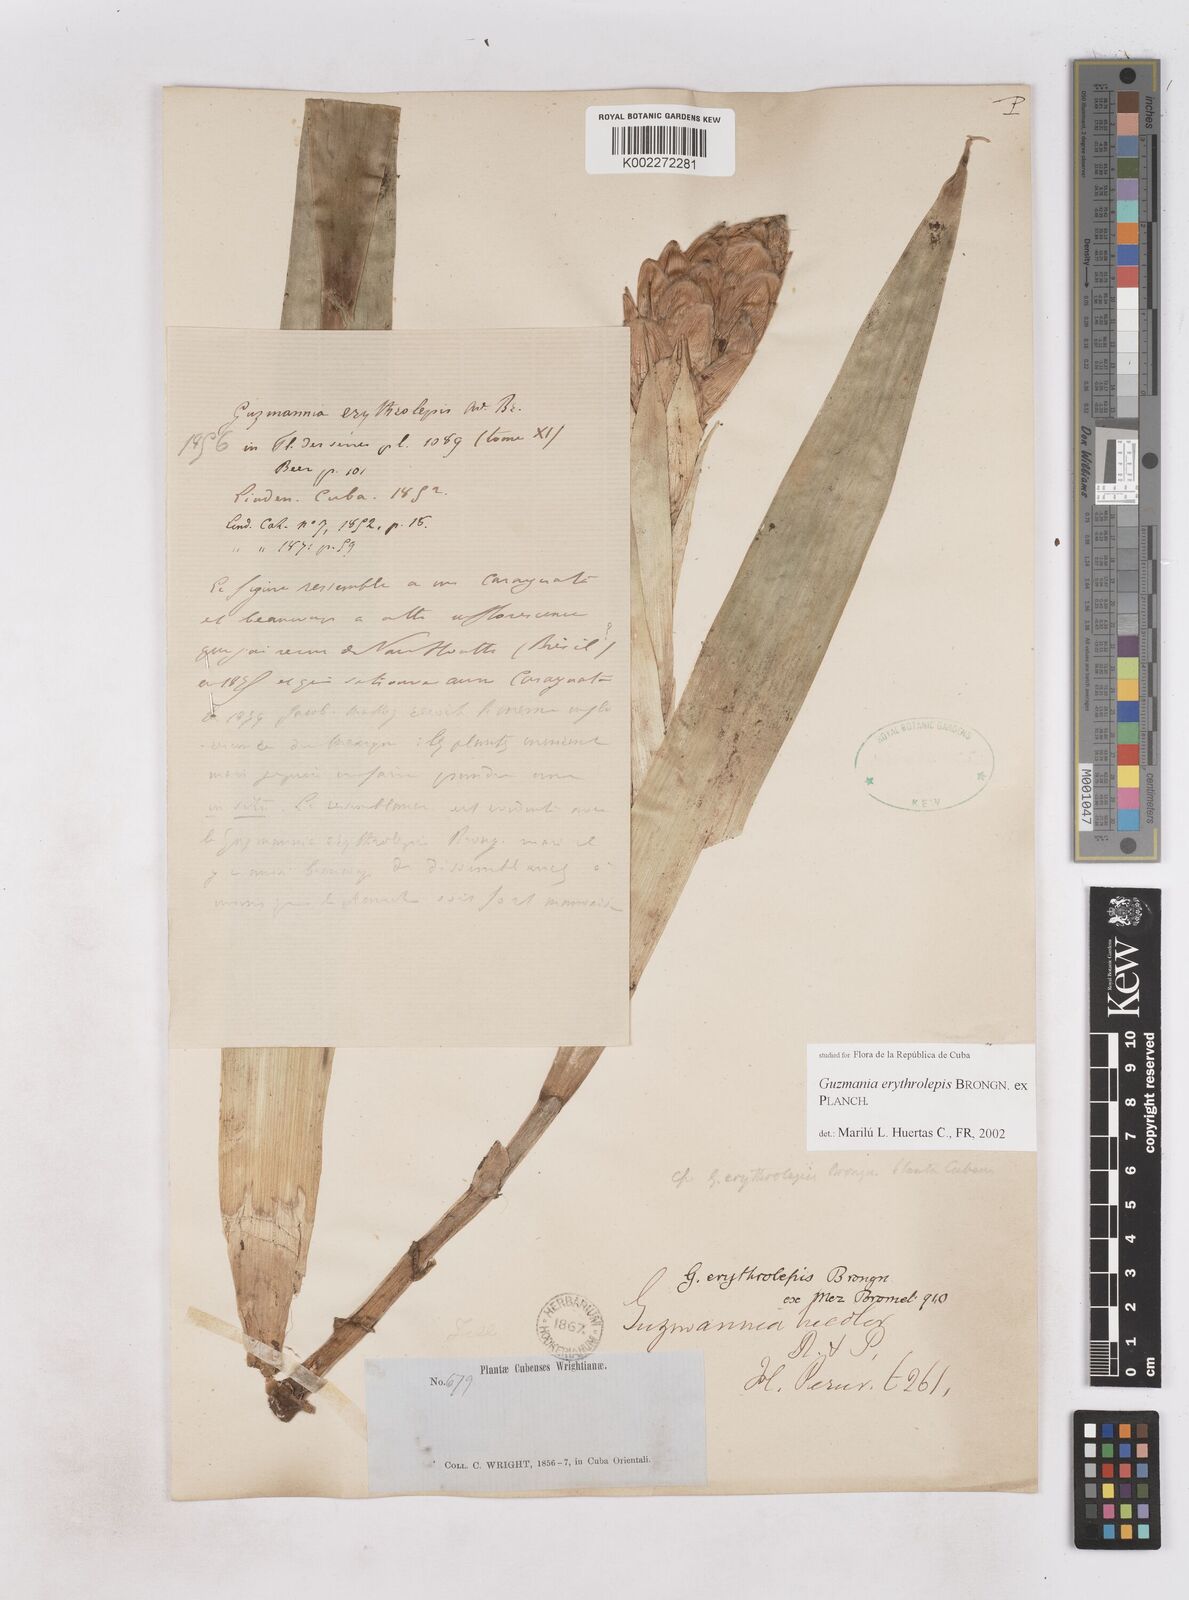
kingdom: Plantae
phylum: Tracheophyta
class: Liliopsida
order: Poales
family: Bromeliaceae
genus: Guzmania
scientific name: Guzmania erythrolepis
